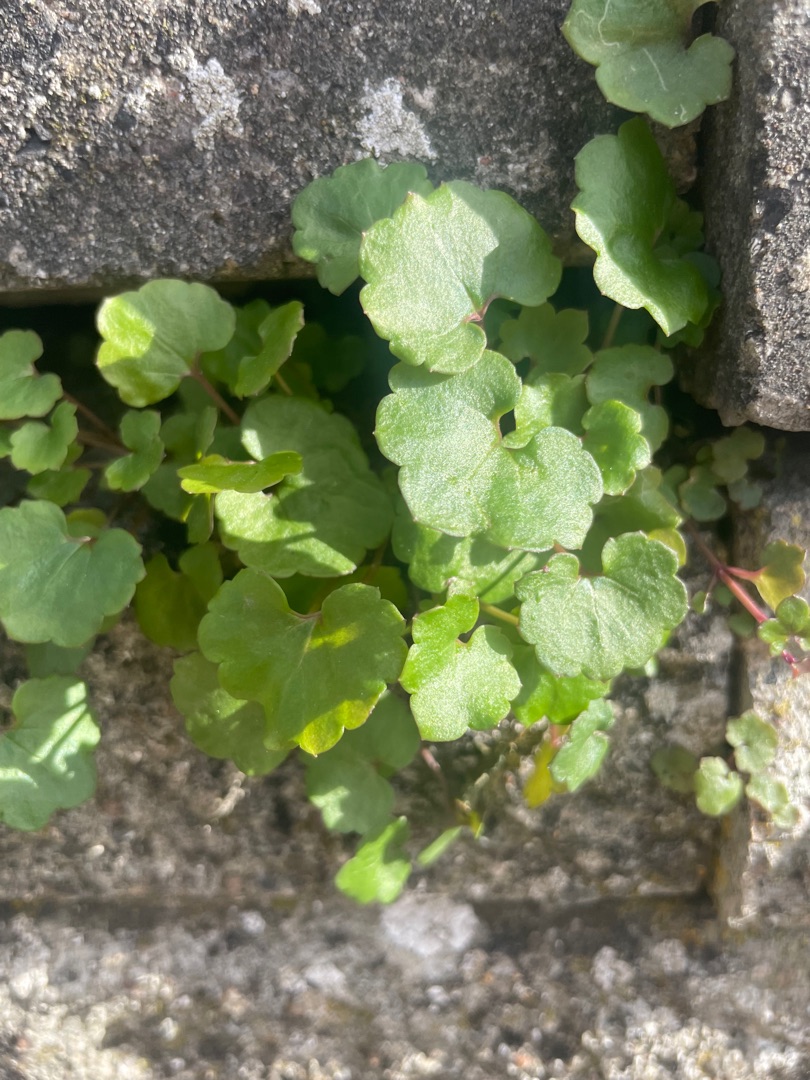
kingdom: Plantae
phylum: Tracheophyta
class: Magnoliopsida
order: Lamiales
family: Plantaginaceae
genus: Cymbalaria
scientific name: Cymbalaria muralis
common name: Vedbend-torskemund
